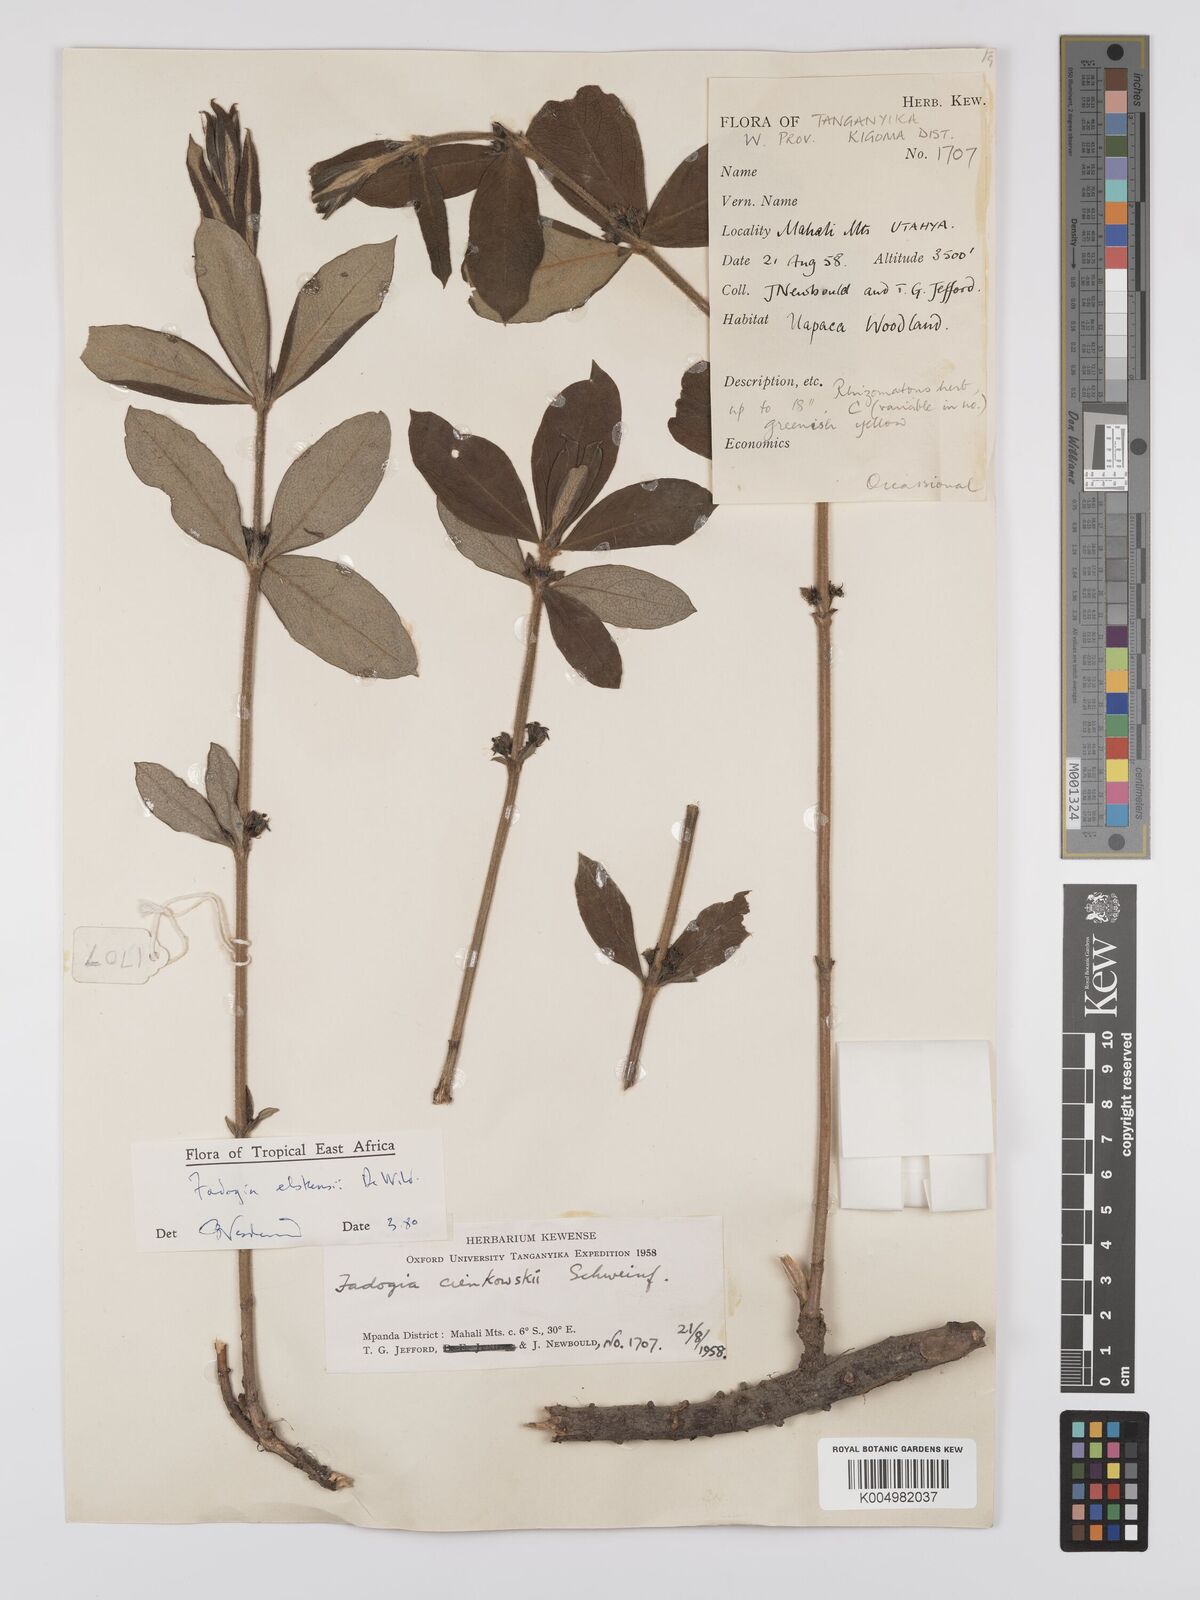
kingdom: Plantae
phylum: Tracheophyta
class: Magnoliopsida
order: Gentianales
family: Rubiaceae
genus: Fadogia
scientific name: Fadogia elskensii
